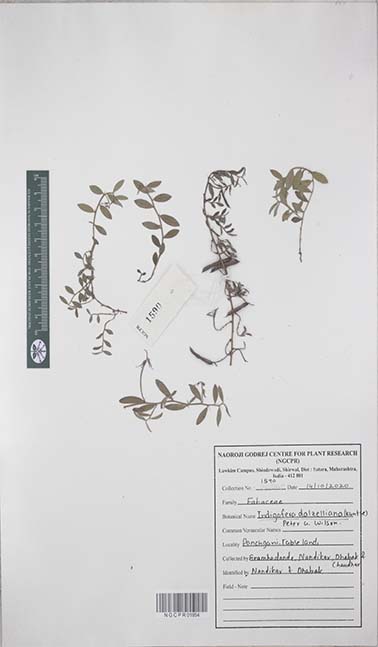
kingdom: Plantae
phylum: Tracheophyta
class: Magnoliopsida
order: Fabales
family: Fabaceae
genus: Indigofera
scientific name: Indigofera dalzelliana
